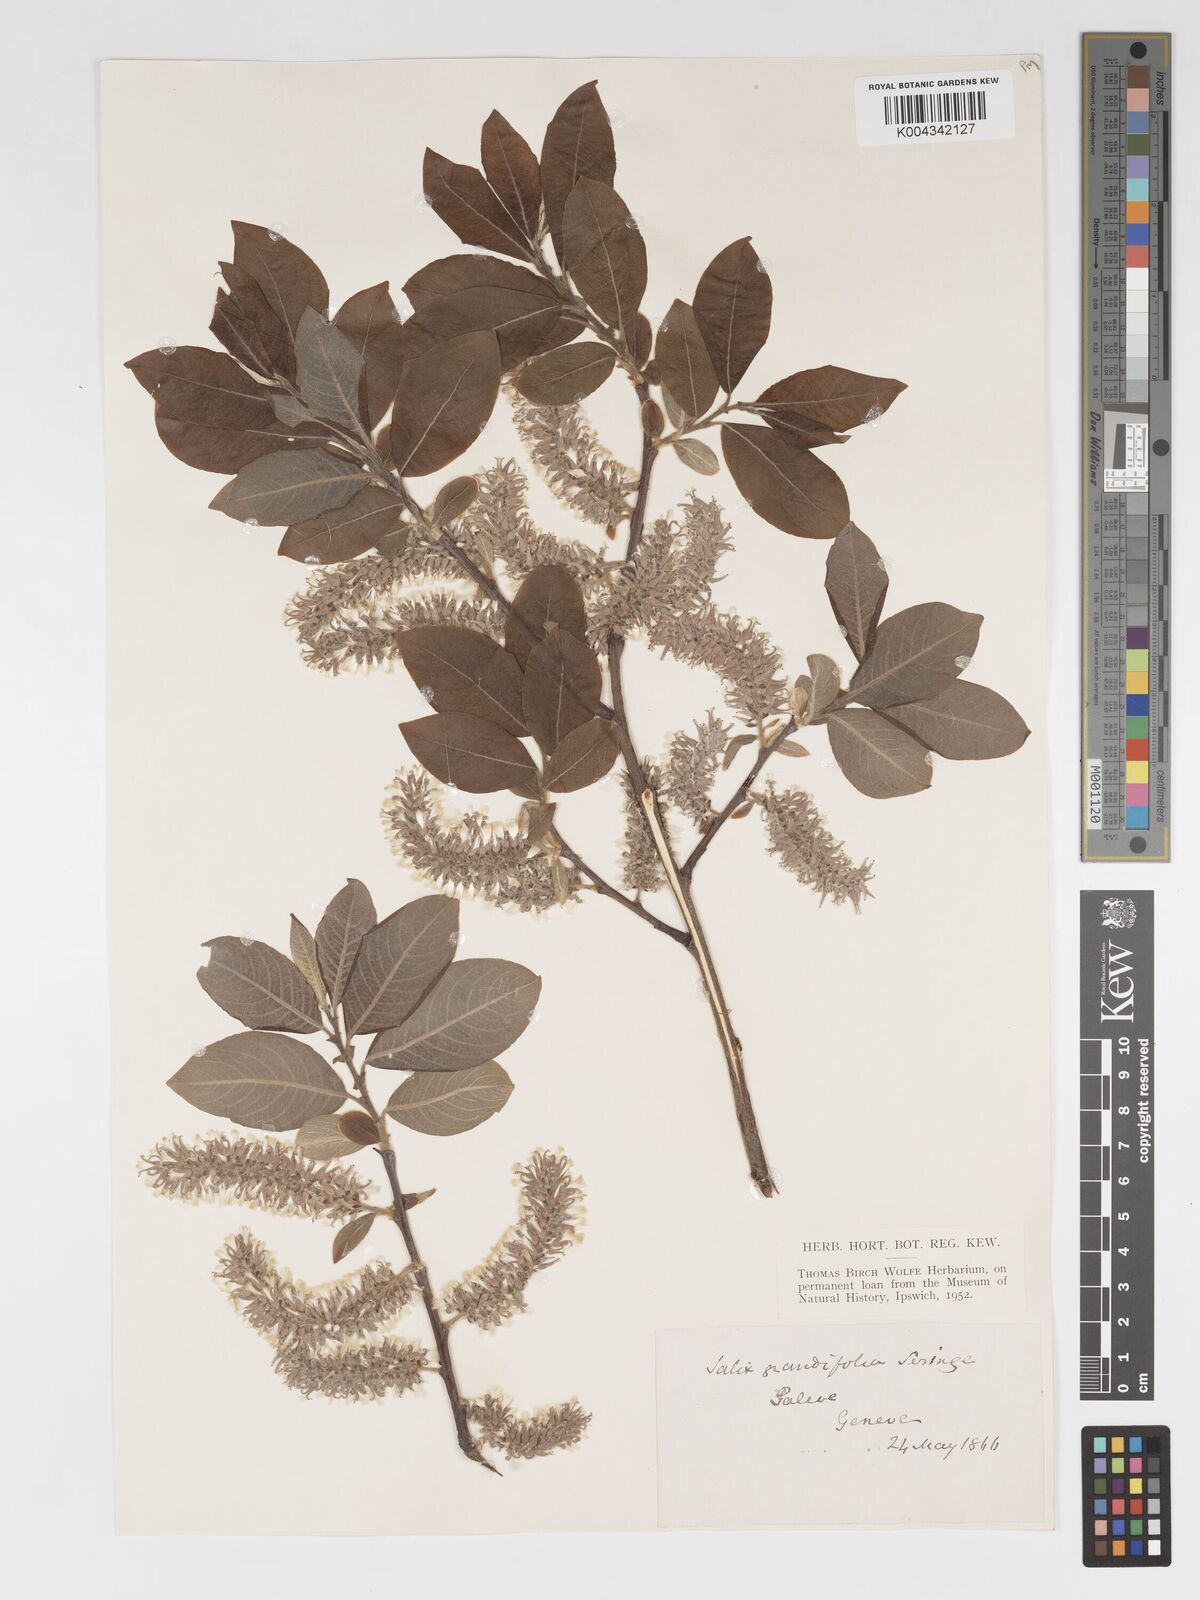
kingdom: Plantae
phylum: Tracheophyta
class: Magnoliopsida
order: Malpighiales
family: Salicaceae
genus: Salix
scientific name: Salix laggeri
